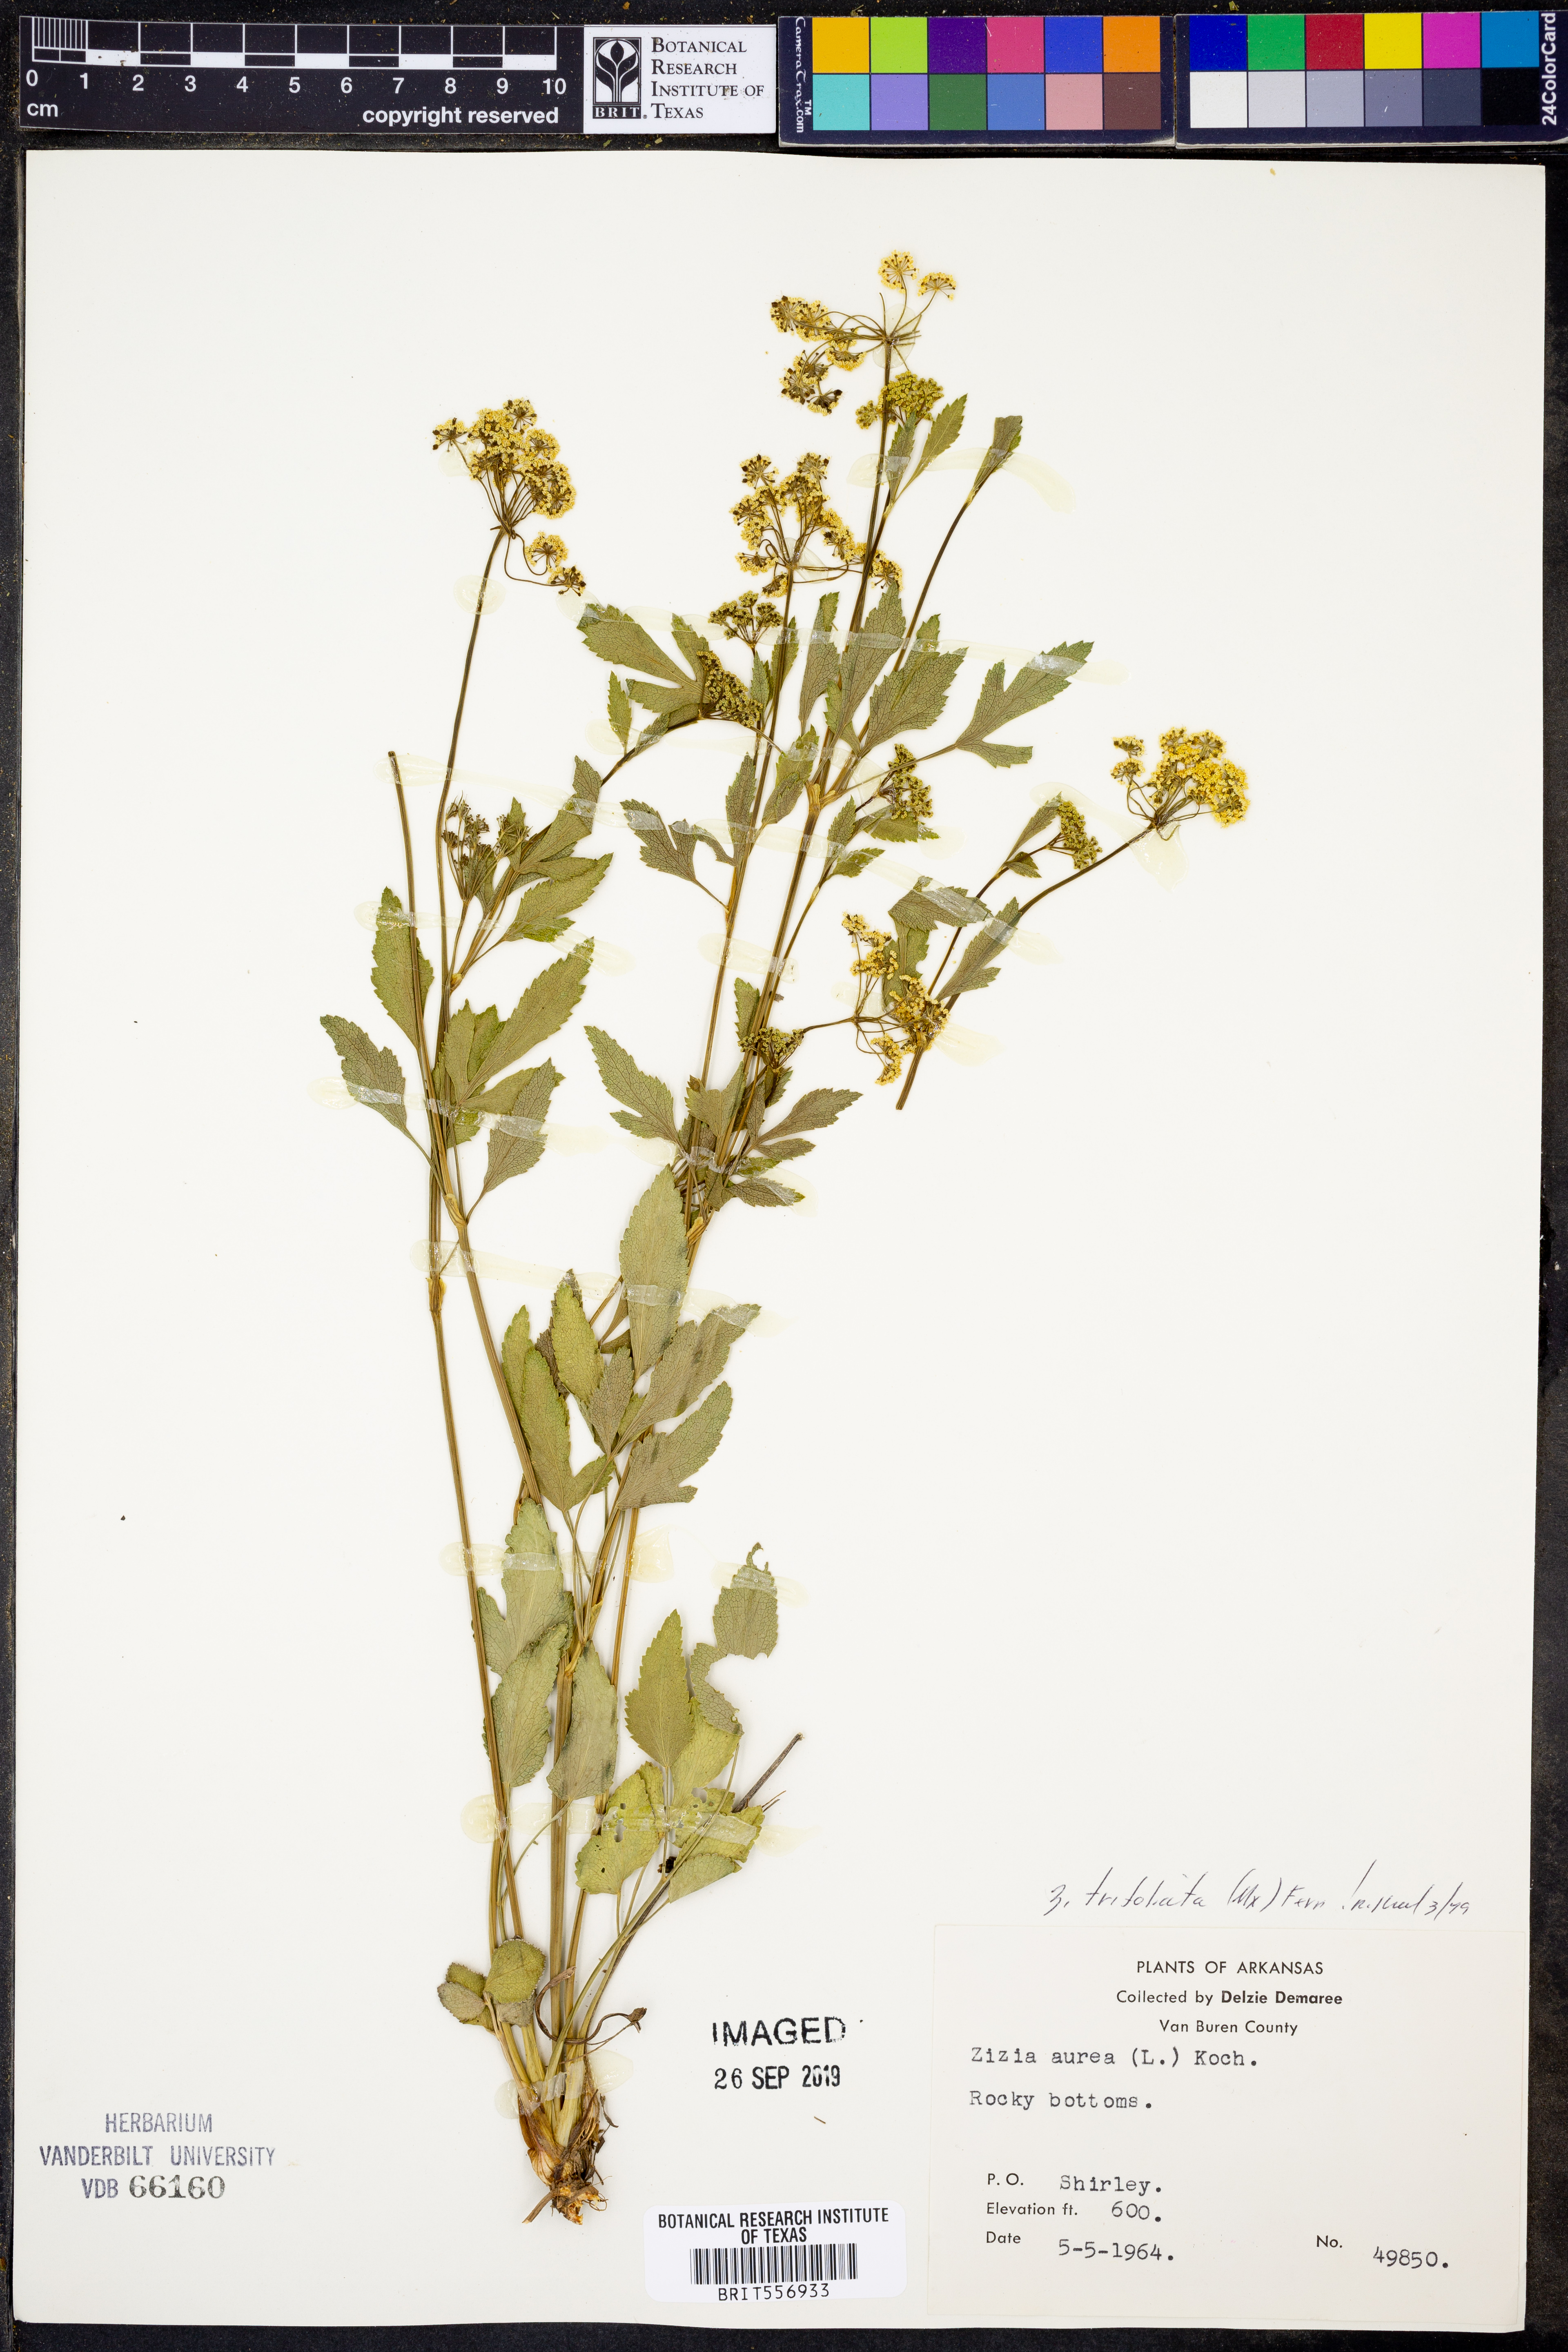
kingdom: Plantae
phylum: Tracheophyta
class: Magnoliopsida
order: Apiales
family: Apiaceae
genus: Zizia
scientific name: Zizia aurea
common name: Golden alexanders
